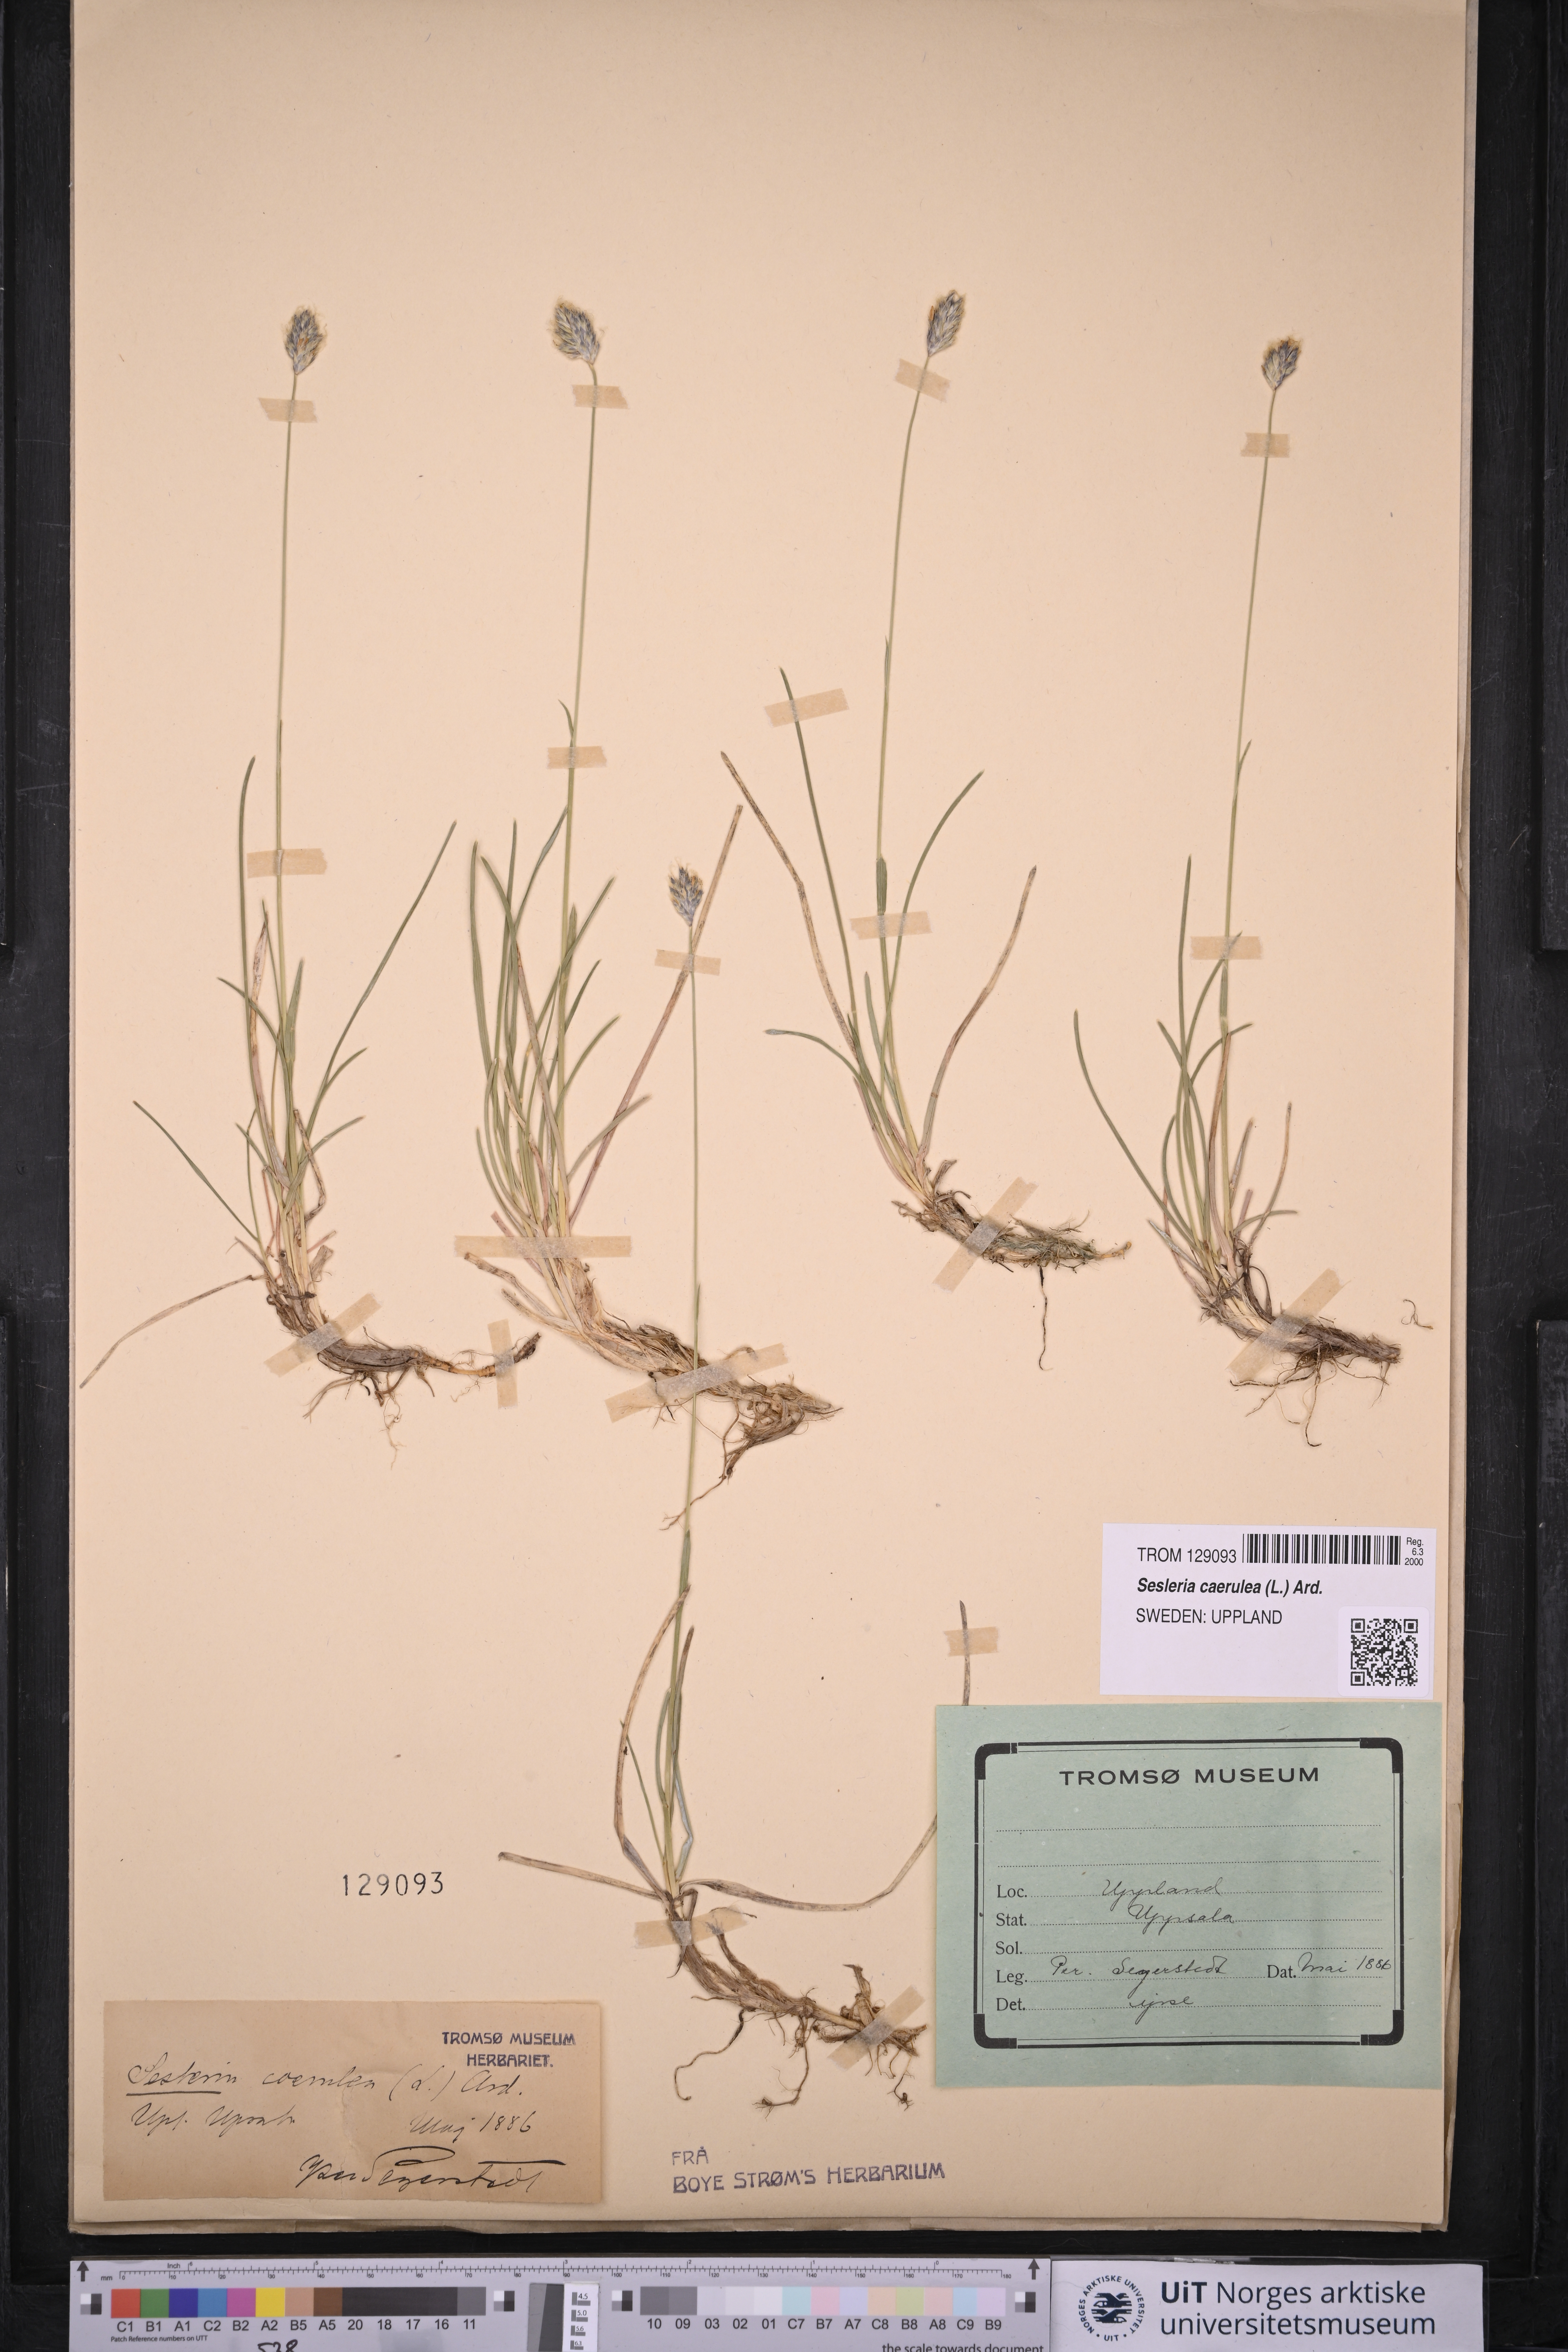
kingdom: Plantae
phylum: Tracheophyta
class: Liliopsida
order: Poales
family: Poaceae
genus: Sesleria
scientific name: Sesleria caerulea
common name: Blue moor-grass
